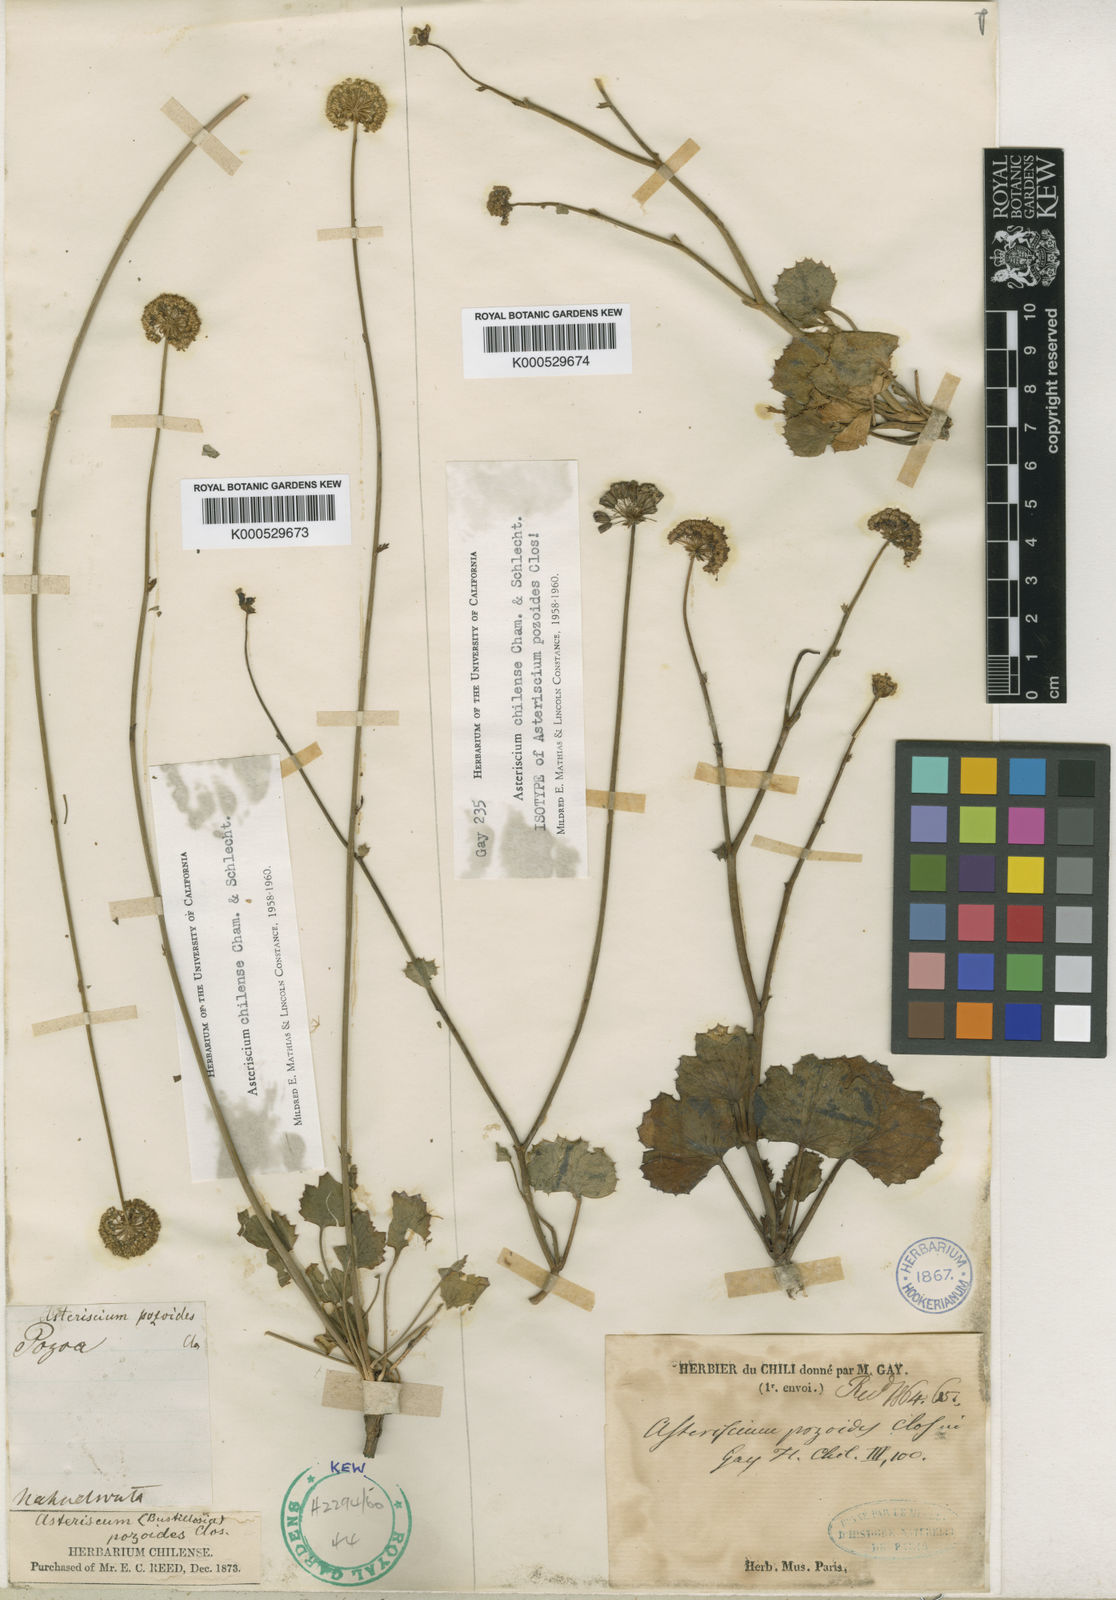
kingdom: Plantae
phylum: Tracheophyta
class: Magnoliopsida
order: Apiales
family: Apiaceae
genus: Asteriscium
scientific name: Asteriscium chilense
